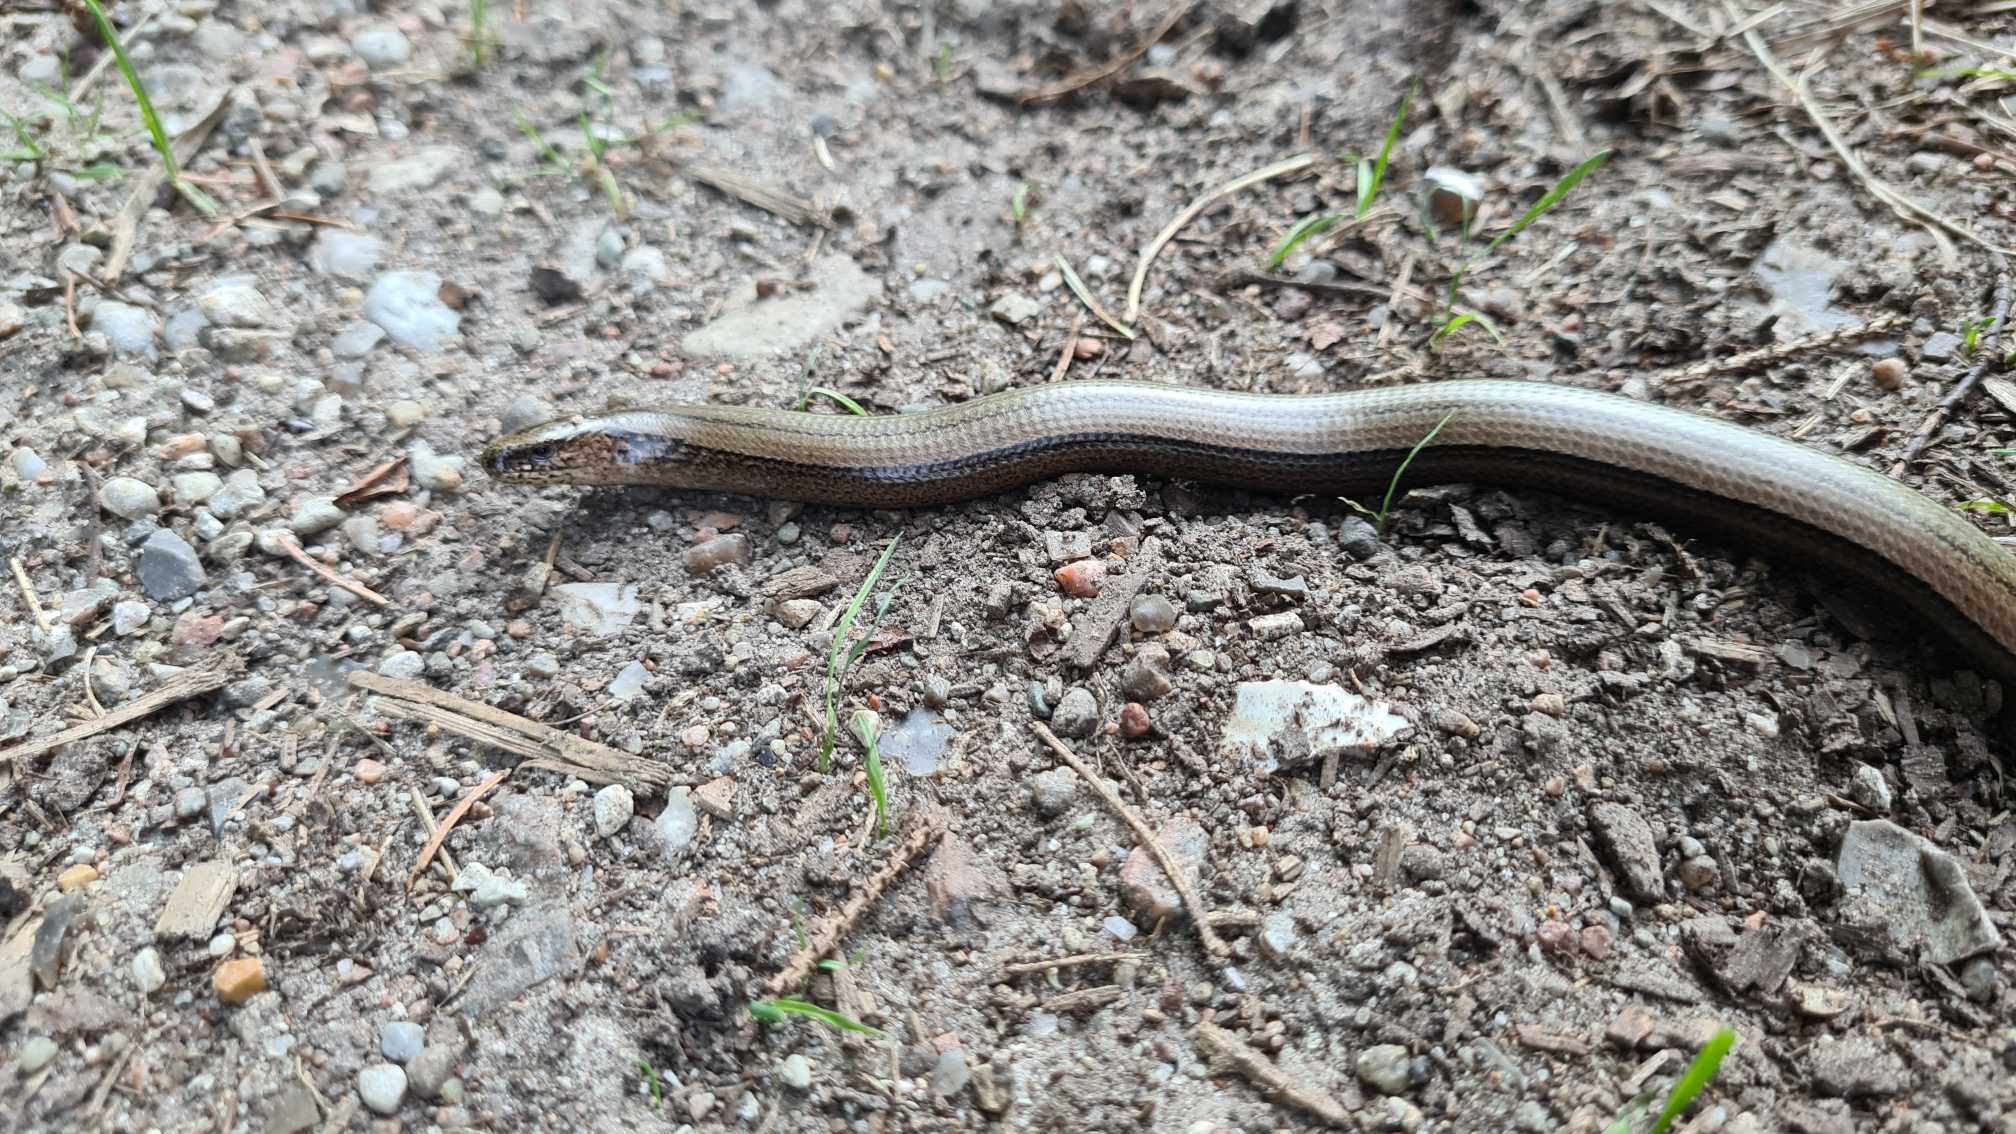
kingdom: Animalia
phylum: Chordata
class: Squamata
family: Anguidae
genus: Anguis
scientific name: Anguis fragilis
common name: Stålorm
